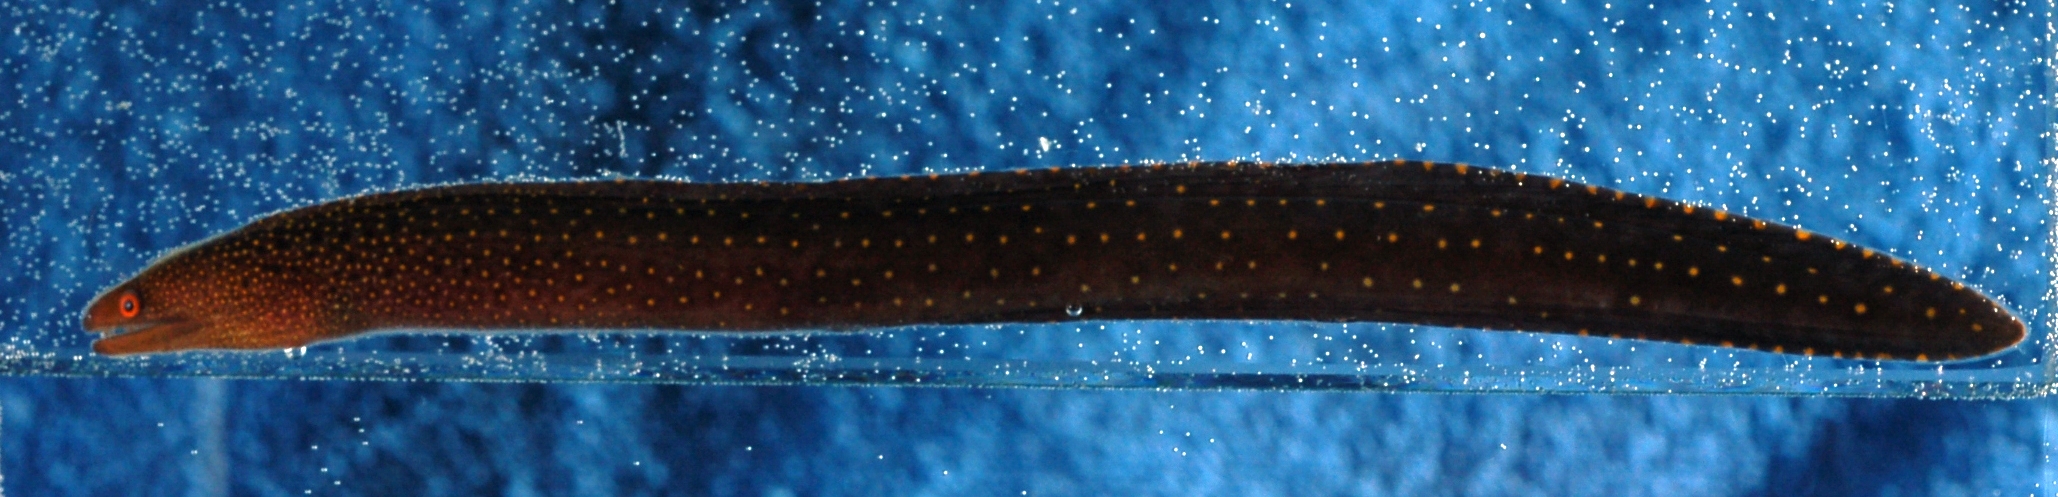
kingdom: Animalia
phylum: Chordata
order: Anguilliformes
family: Muraenidae
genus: Gymnothorax
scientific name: Gymnothorax eurostus
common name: Stout moray
